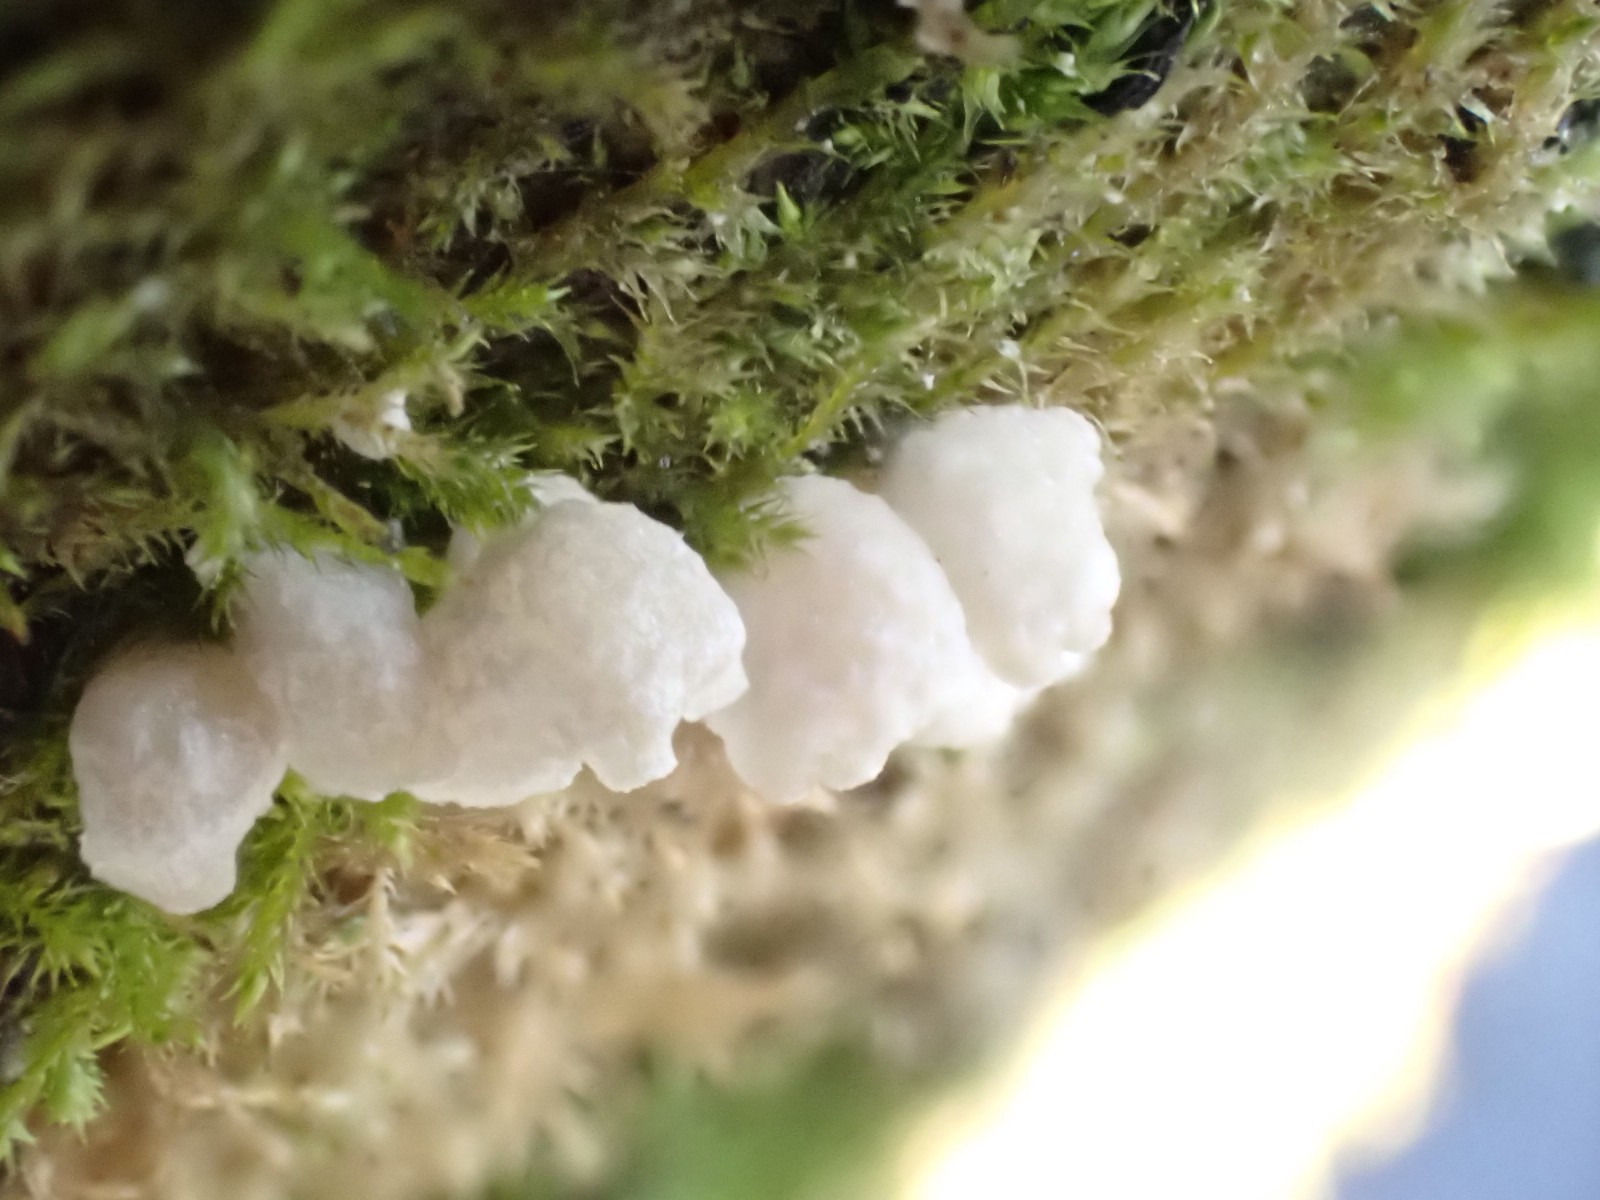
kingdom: Fungi
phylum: Basidiomycota
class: Agaricomycetes
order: Agaricales
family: Hygrophoraceae
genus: Arrhenia
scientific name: Arrhenia retiruga
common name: lille fontænehat
